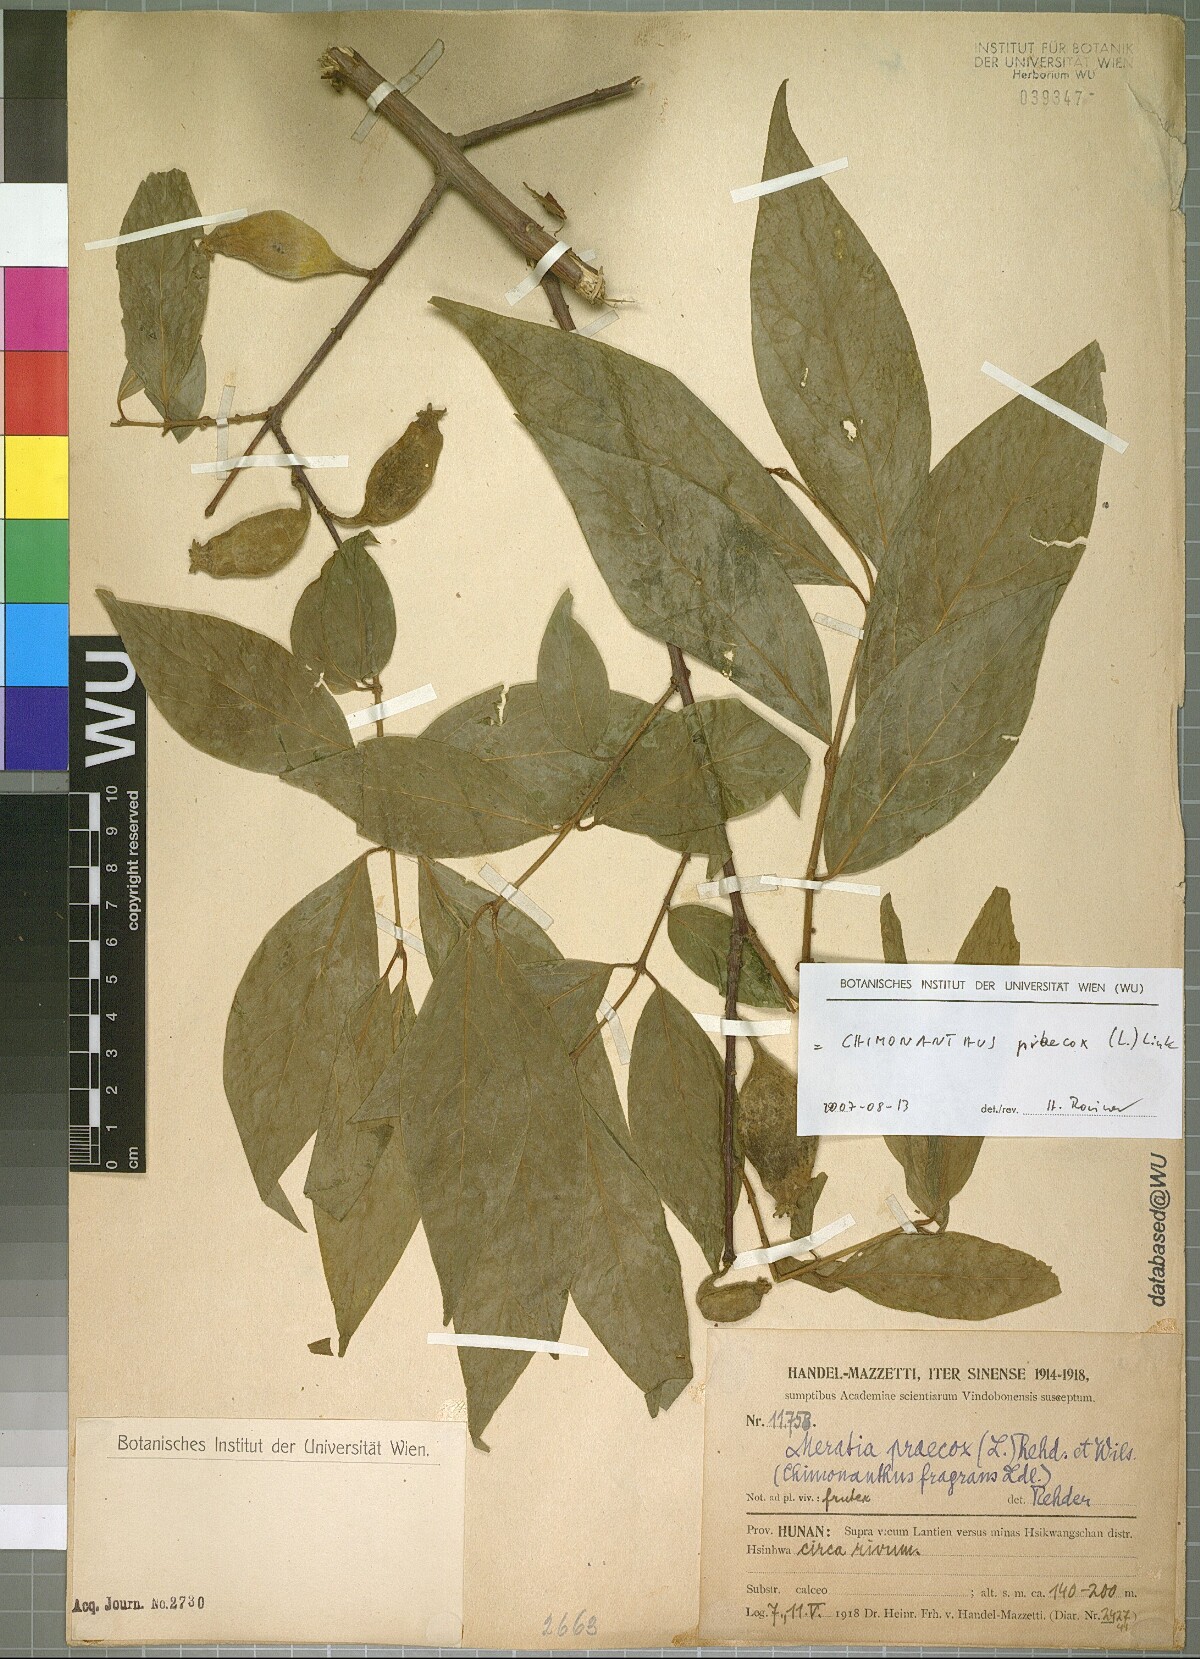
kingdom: Plantae
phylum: Tracheophyta
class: Magnoliopsida
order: Laurales
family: Calycanthaceae
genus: Chimonanthus
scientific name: Chimonanthus praecox
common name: Wintersweet
